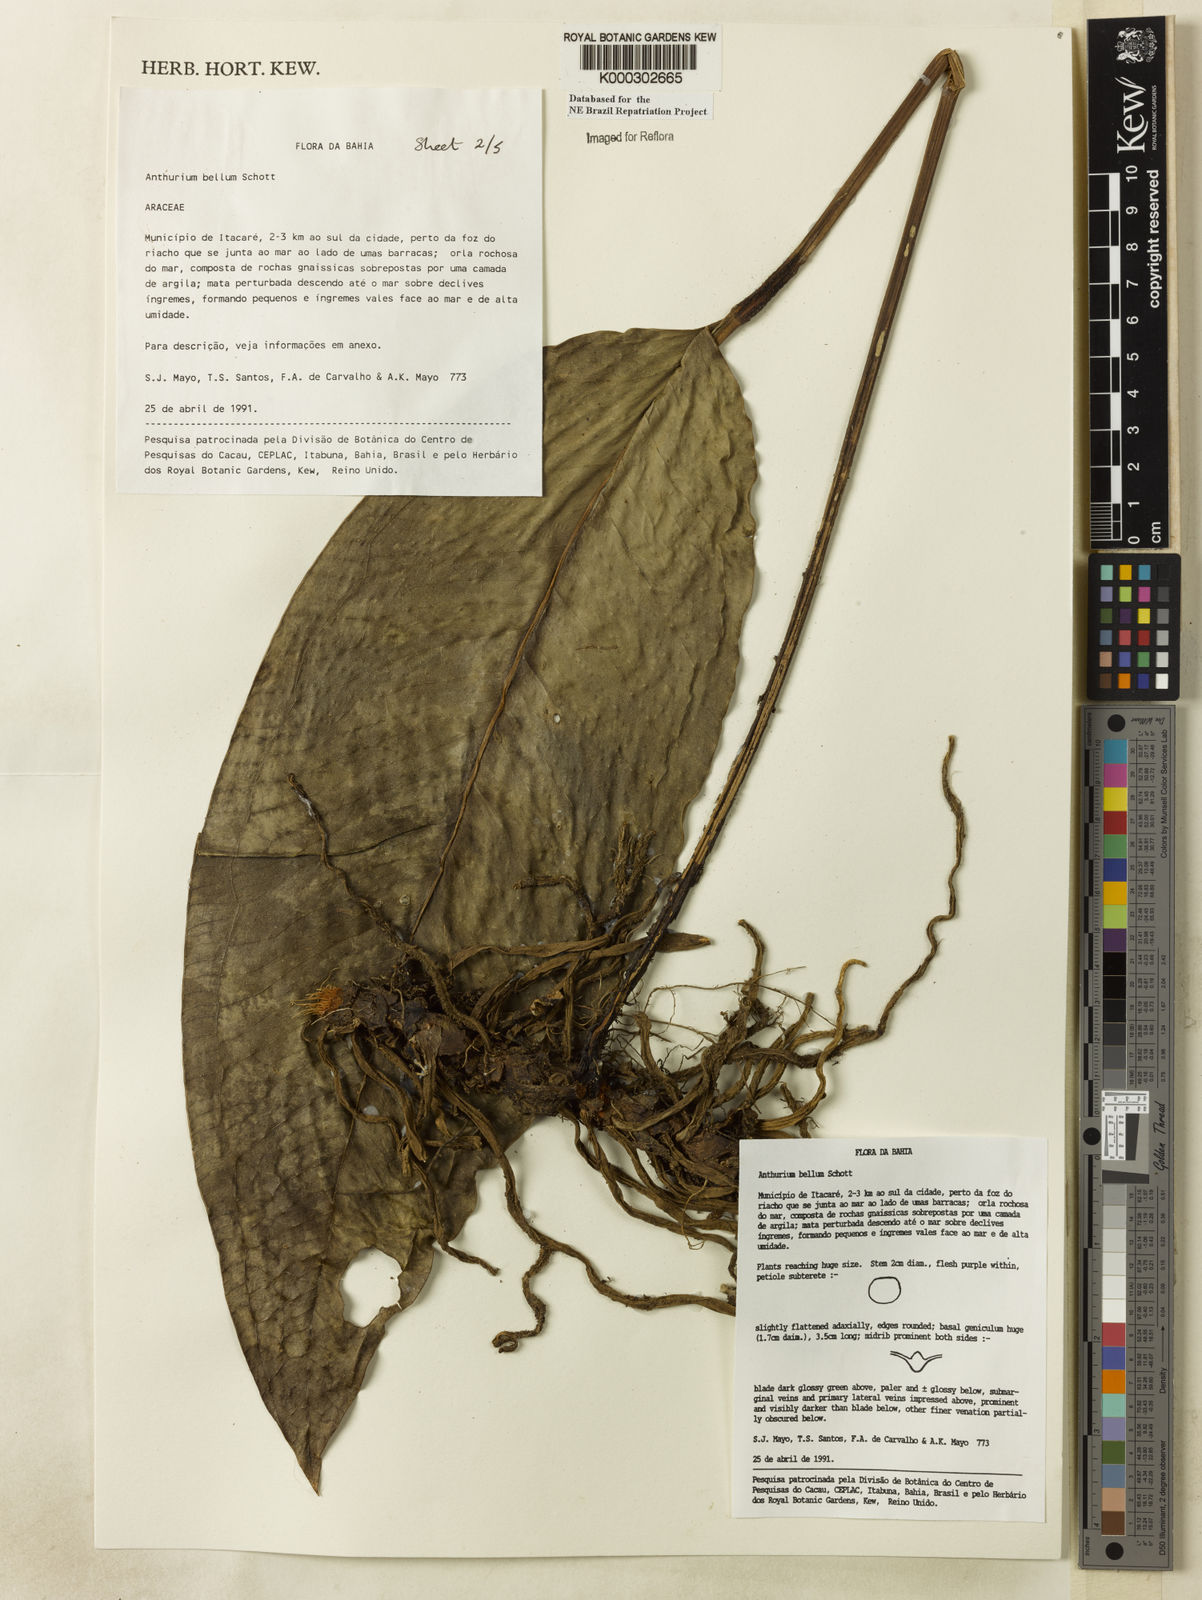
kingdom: Plantae
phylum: Tracheophyta
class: Liliopsida
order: Alismatales
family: Araceae
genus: Anthurium
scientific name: Anthurium bellum
